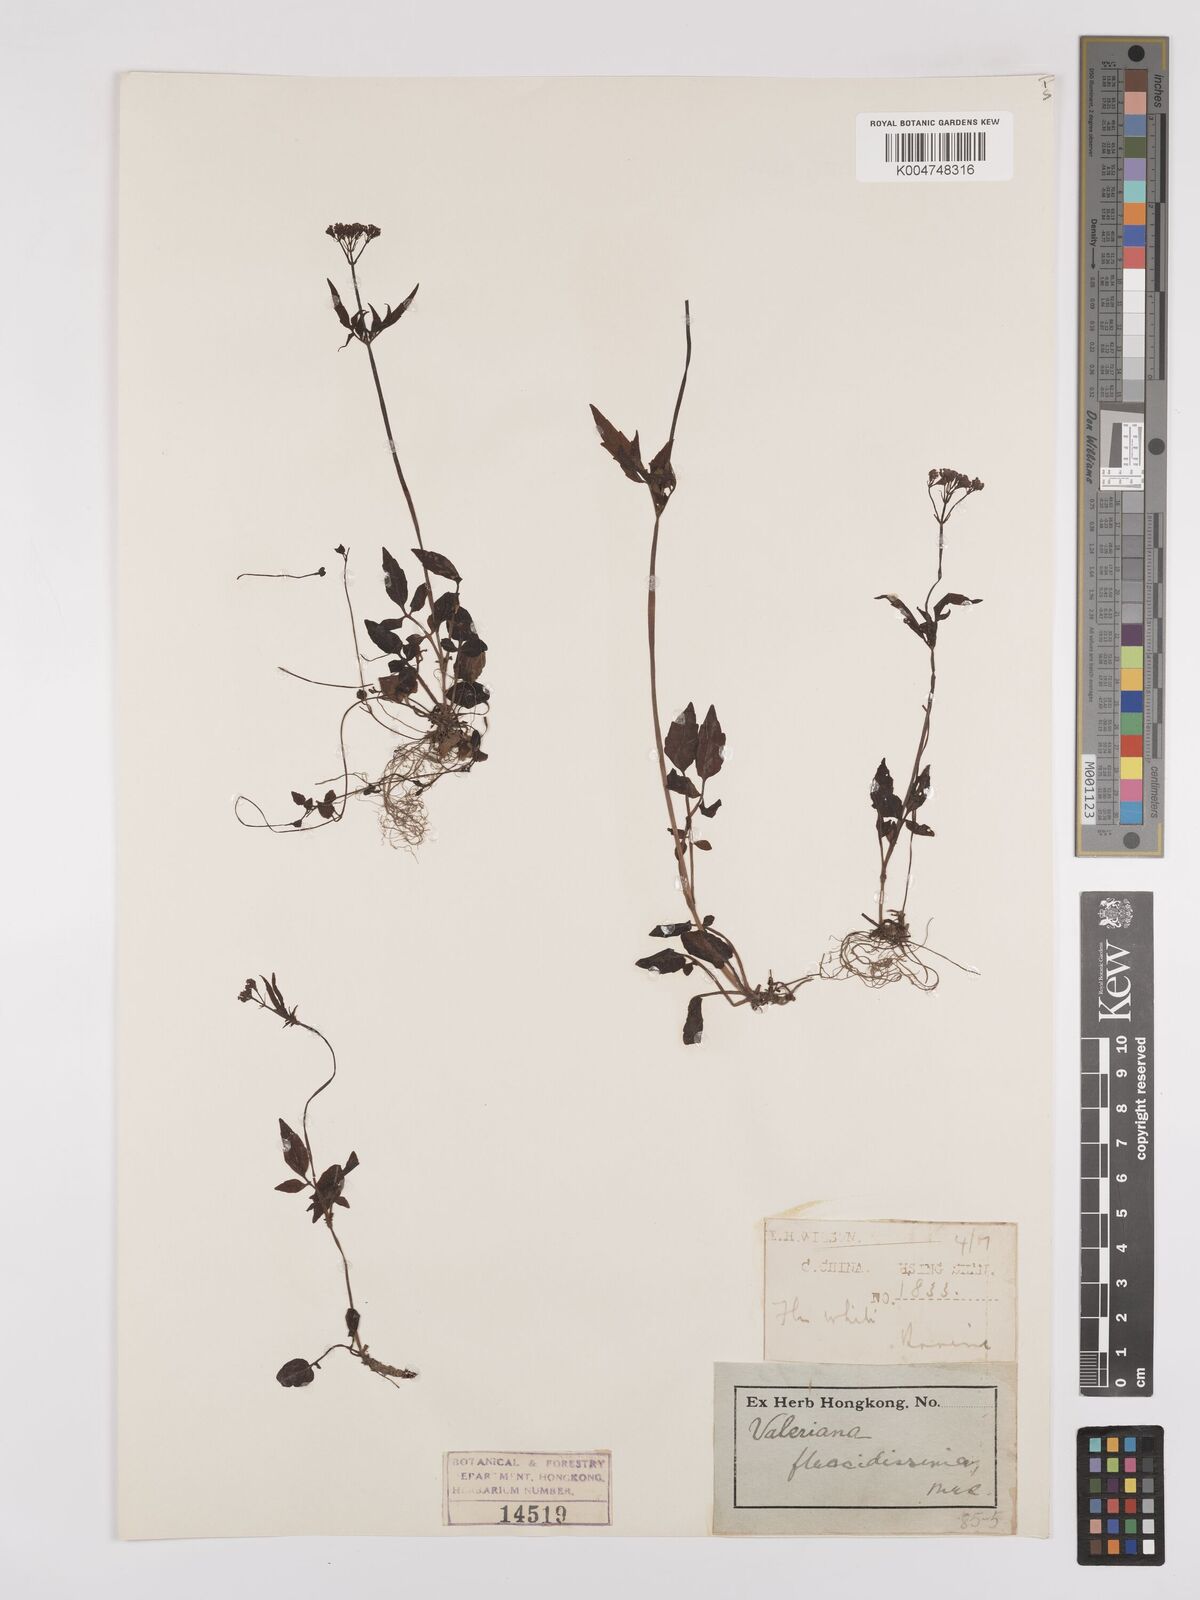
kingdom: Plantae
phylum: Tracheophyta
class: Magnoliopsida
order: Dipsacales
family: Caprifoliaceae
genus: Valeriana
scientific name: Valeriana flaccidissima
